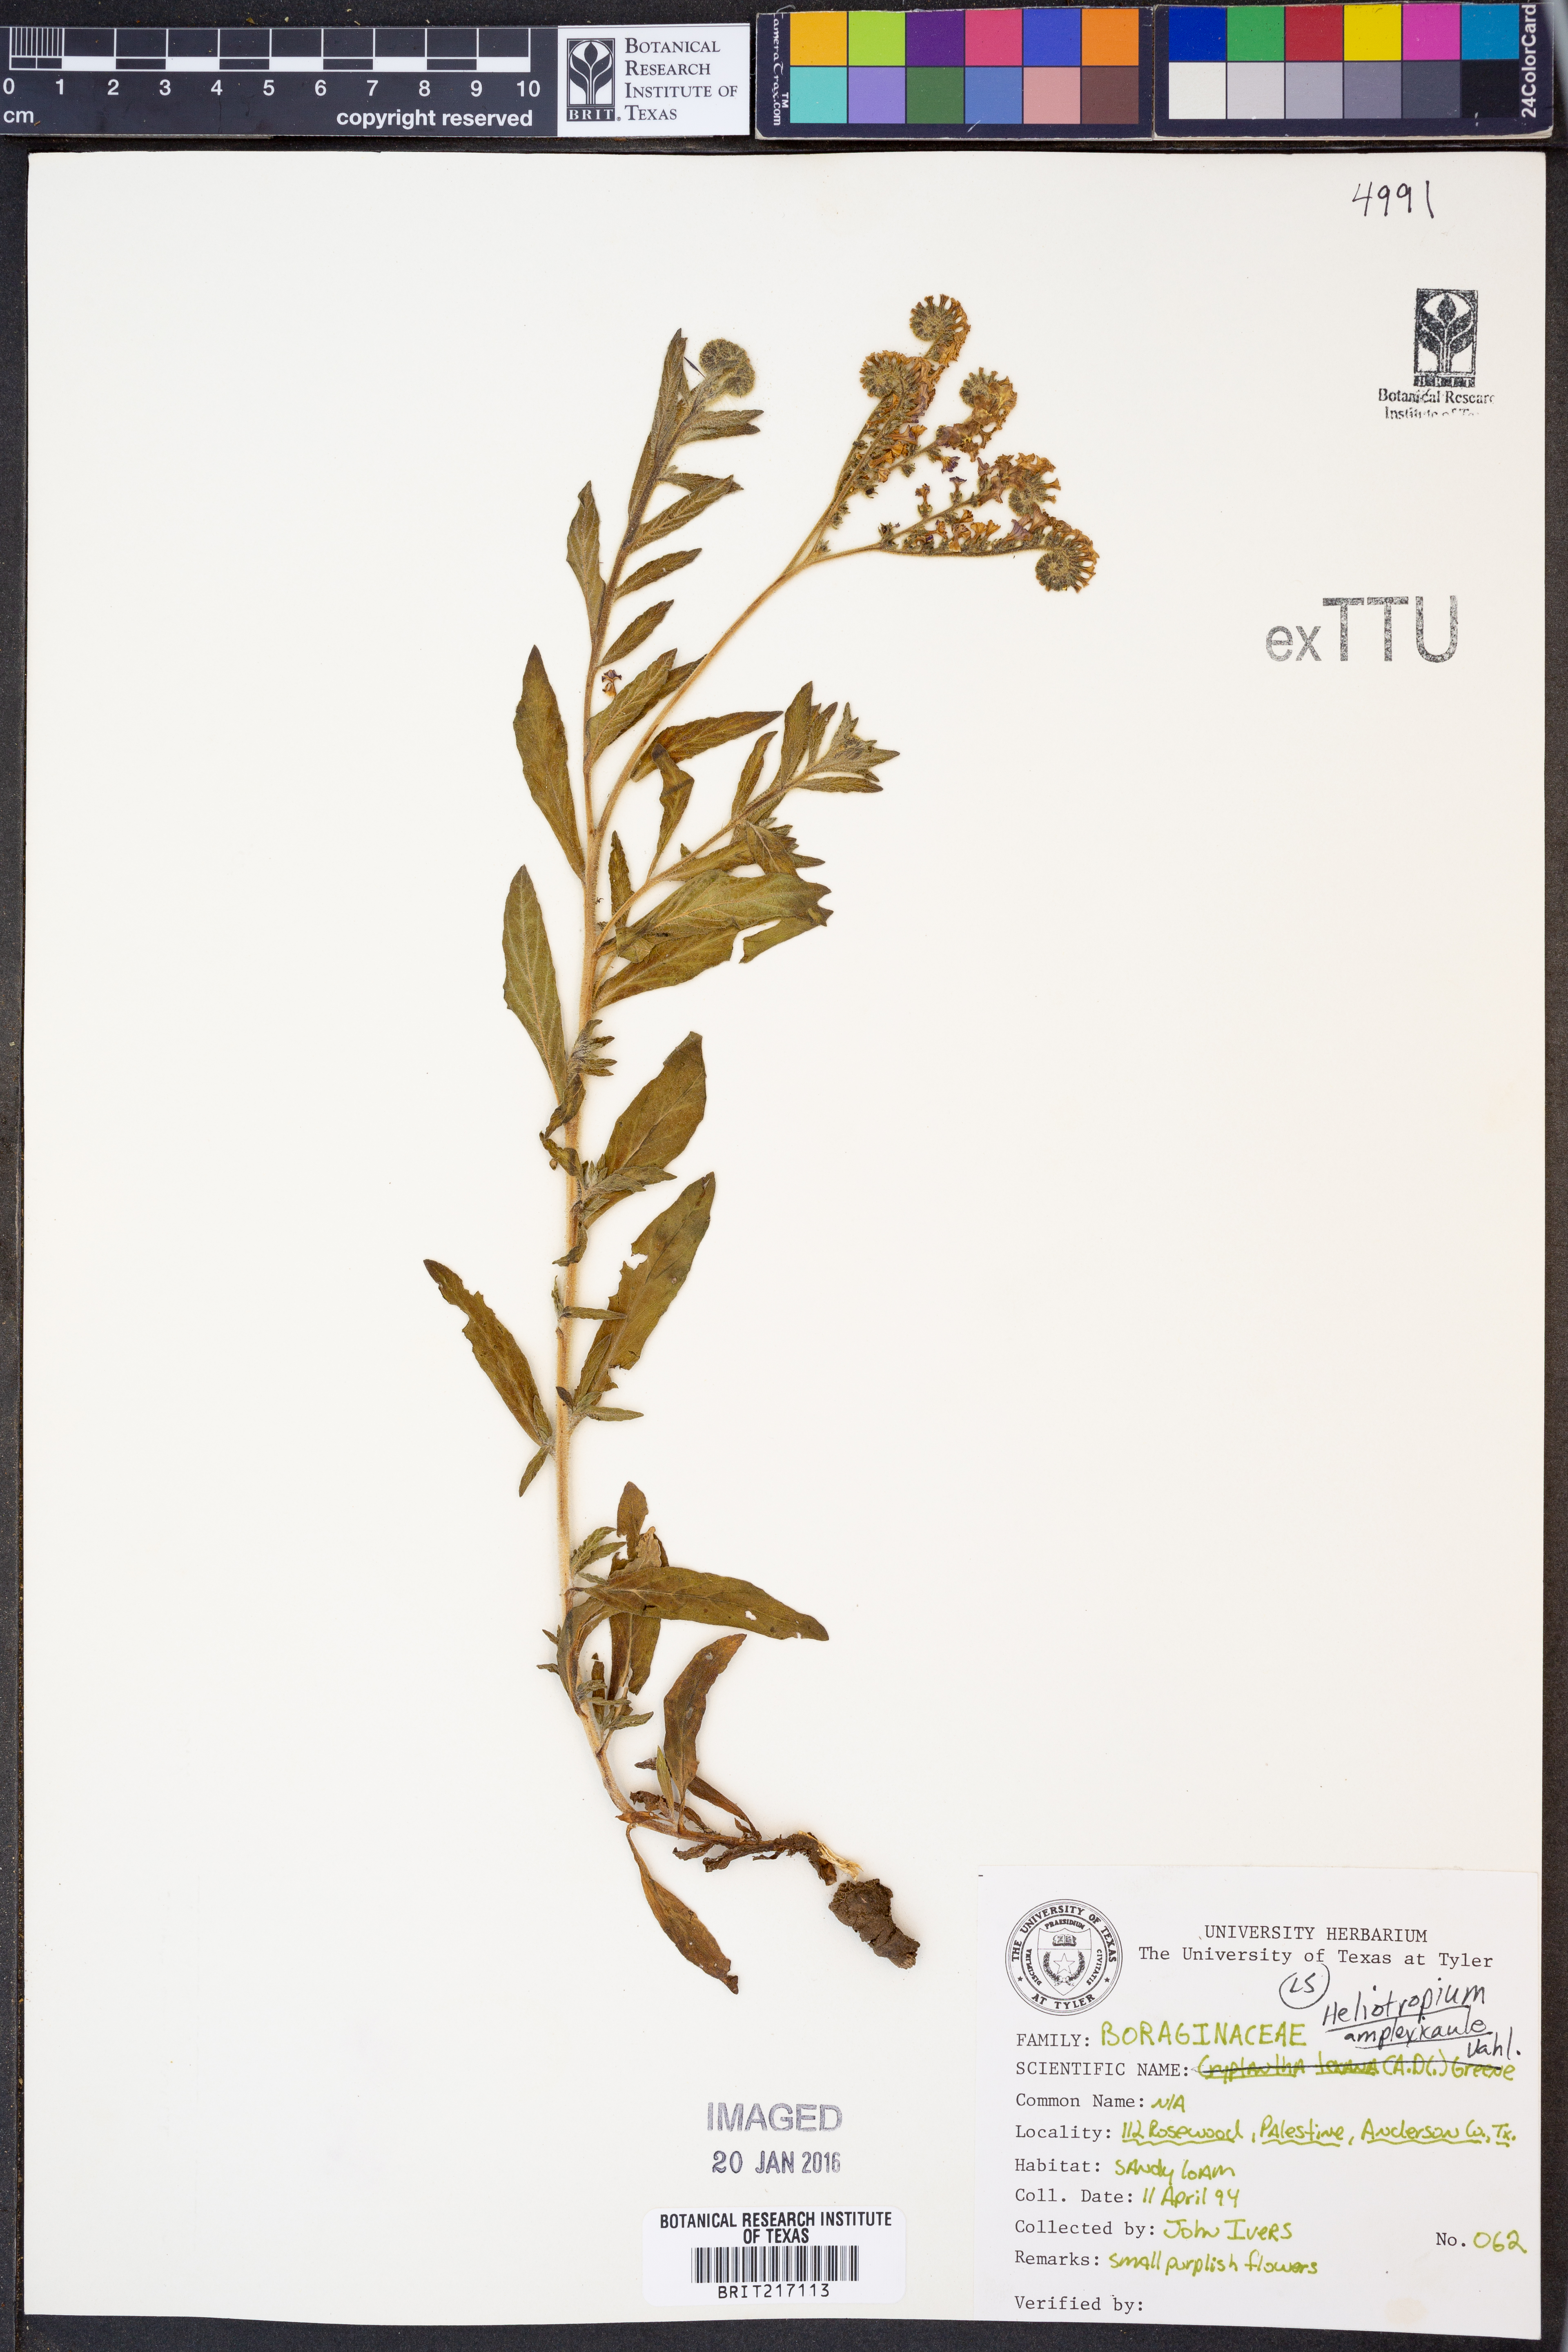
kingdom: Plantae
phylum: Tracheophyta
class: Magnoliopsida
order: Boraginales
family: Heliotropiaceae
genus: Heliotropium
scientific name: Heliotropium amplexicaule
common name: Clasping heliotrope
